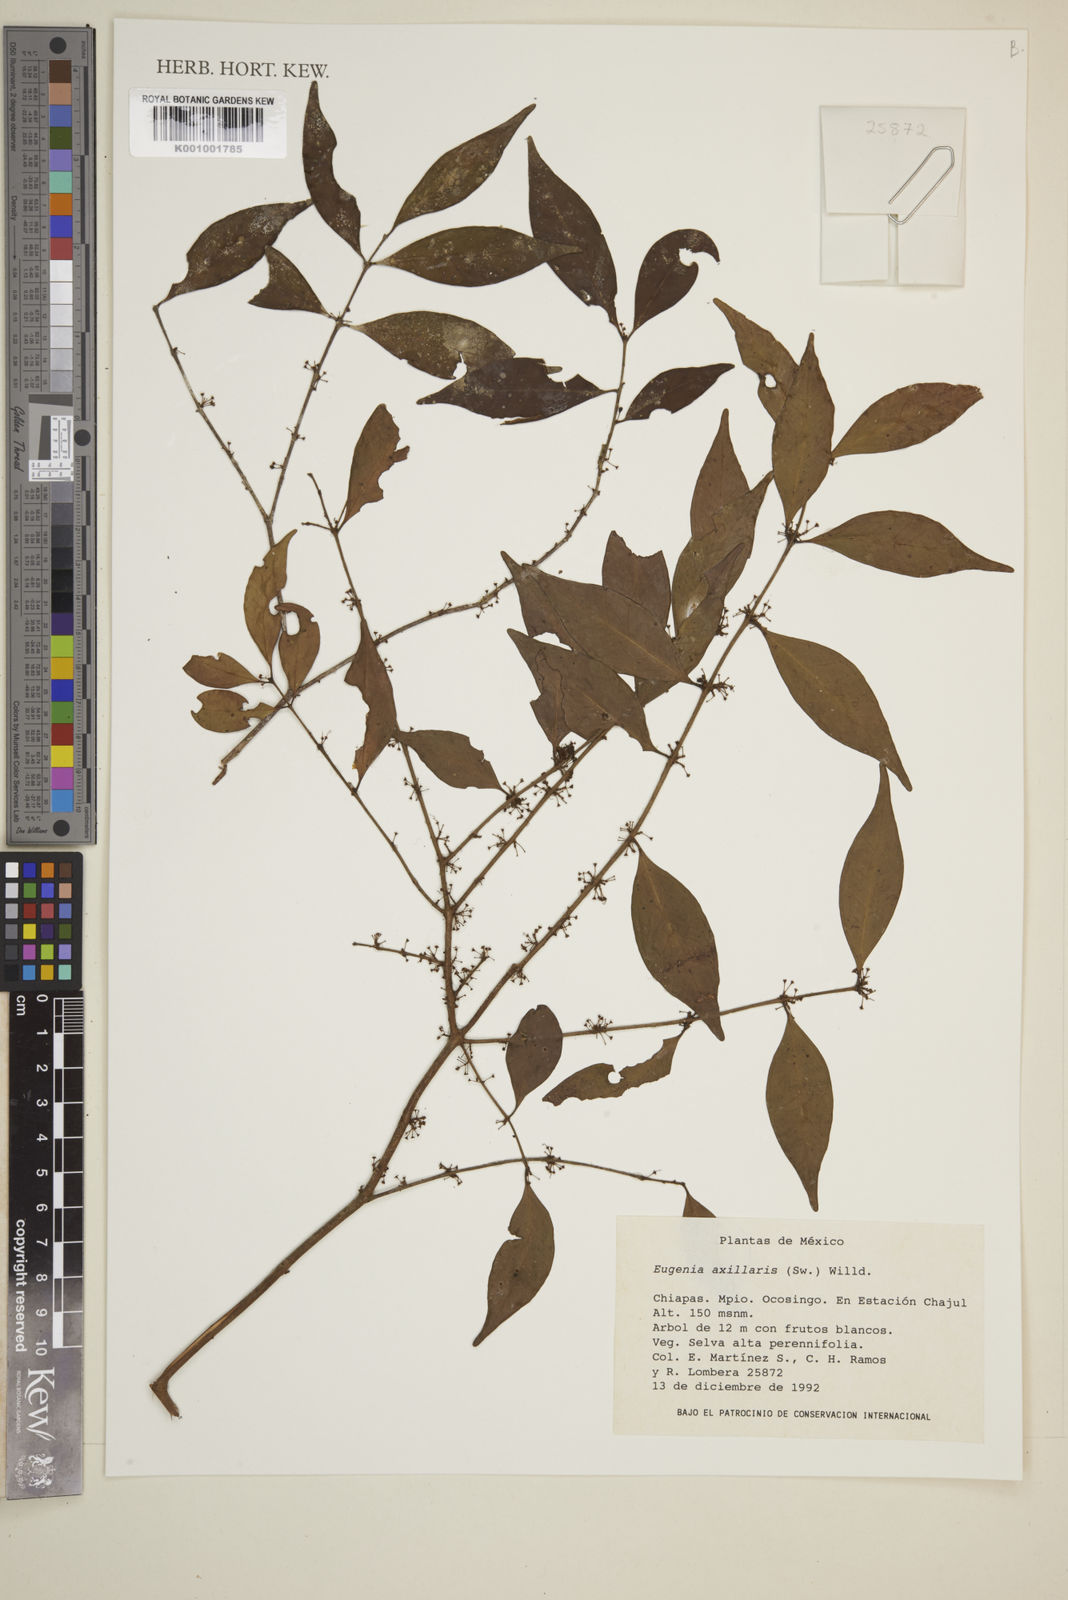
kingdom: Plantae
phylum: Tracheophyta
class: Magnoliopsida
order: Myrtales
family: Myrtaceae
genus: Eugenia
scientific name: Eugenia axillaris
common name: Choaky berry
